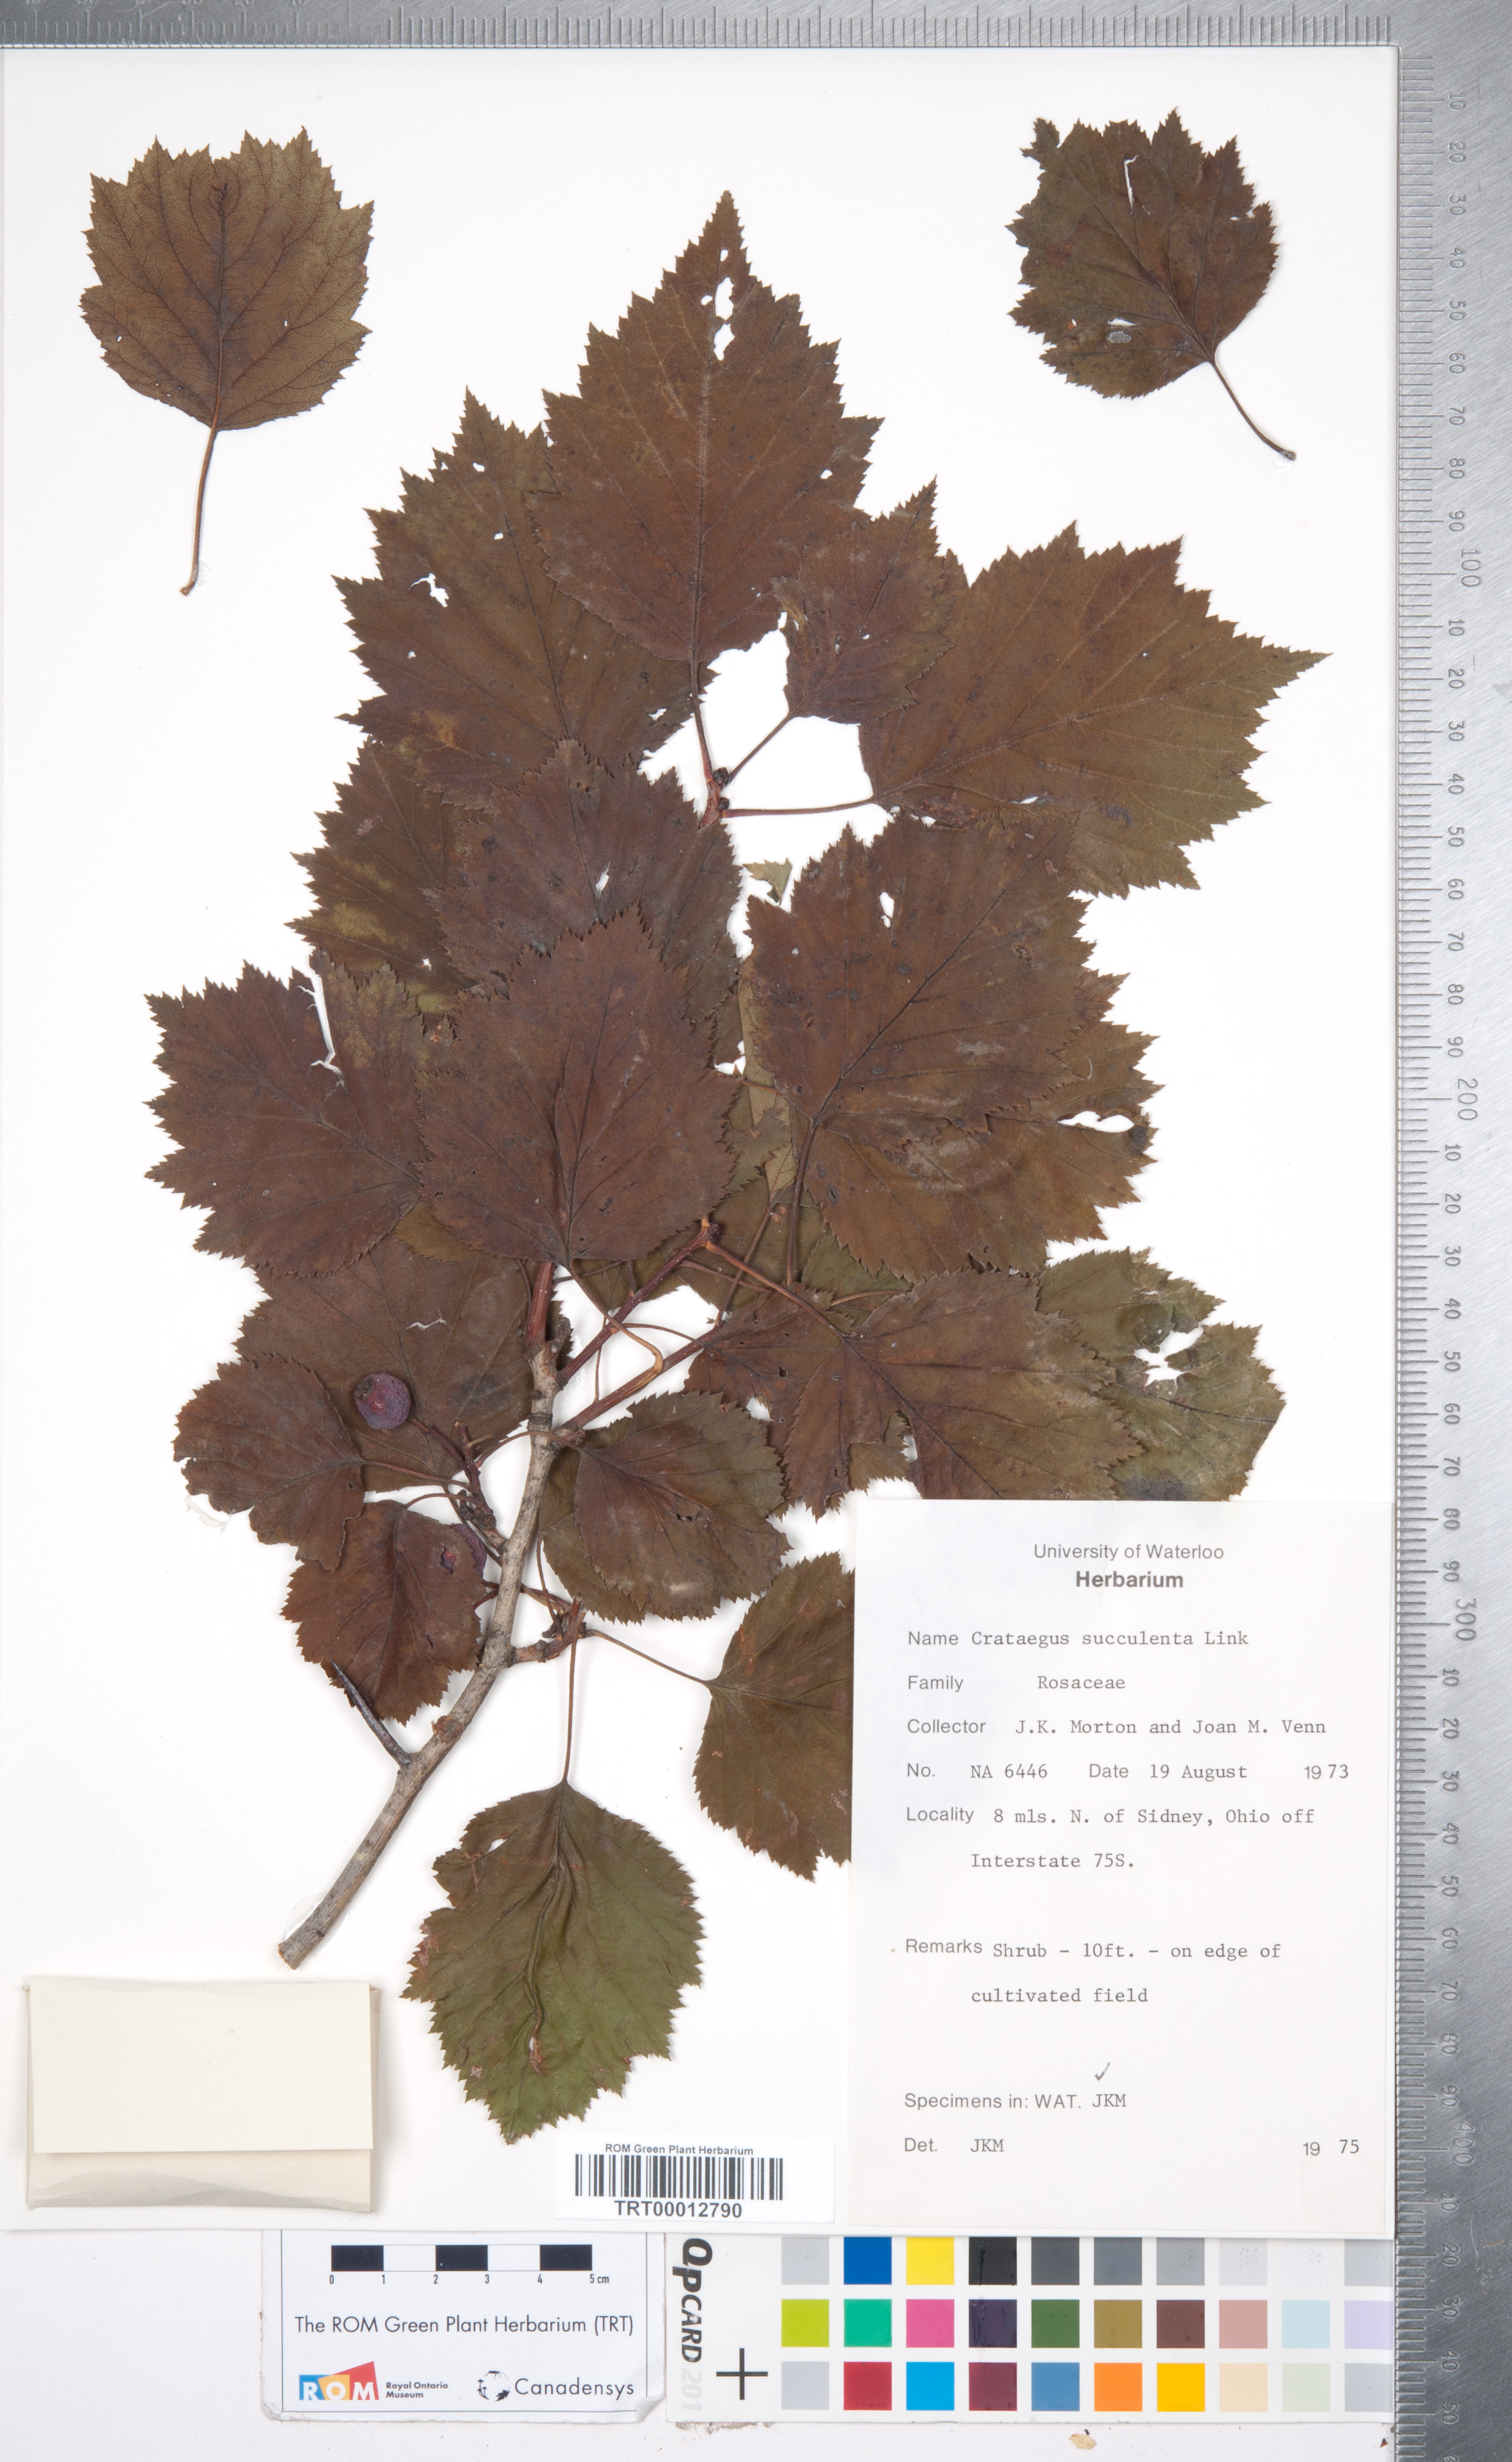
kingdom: Plantae
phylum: Tracheophyta
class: Magnoliopsida
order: Rosales
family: Rosaceae
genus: Crataegus
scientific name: Crataegus succulenta
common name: Fleshy hawthorn
